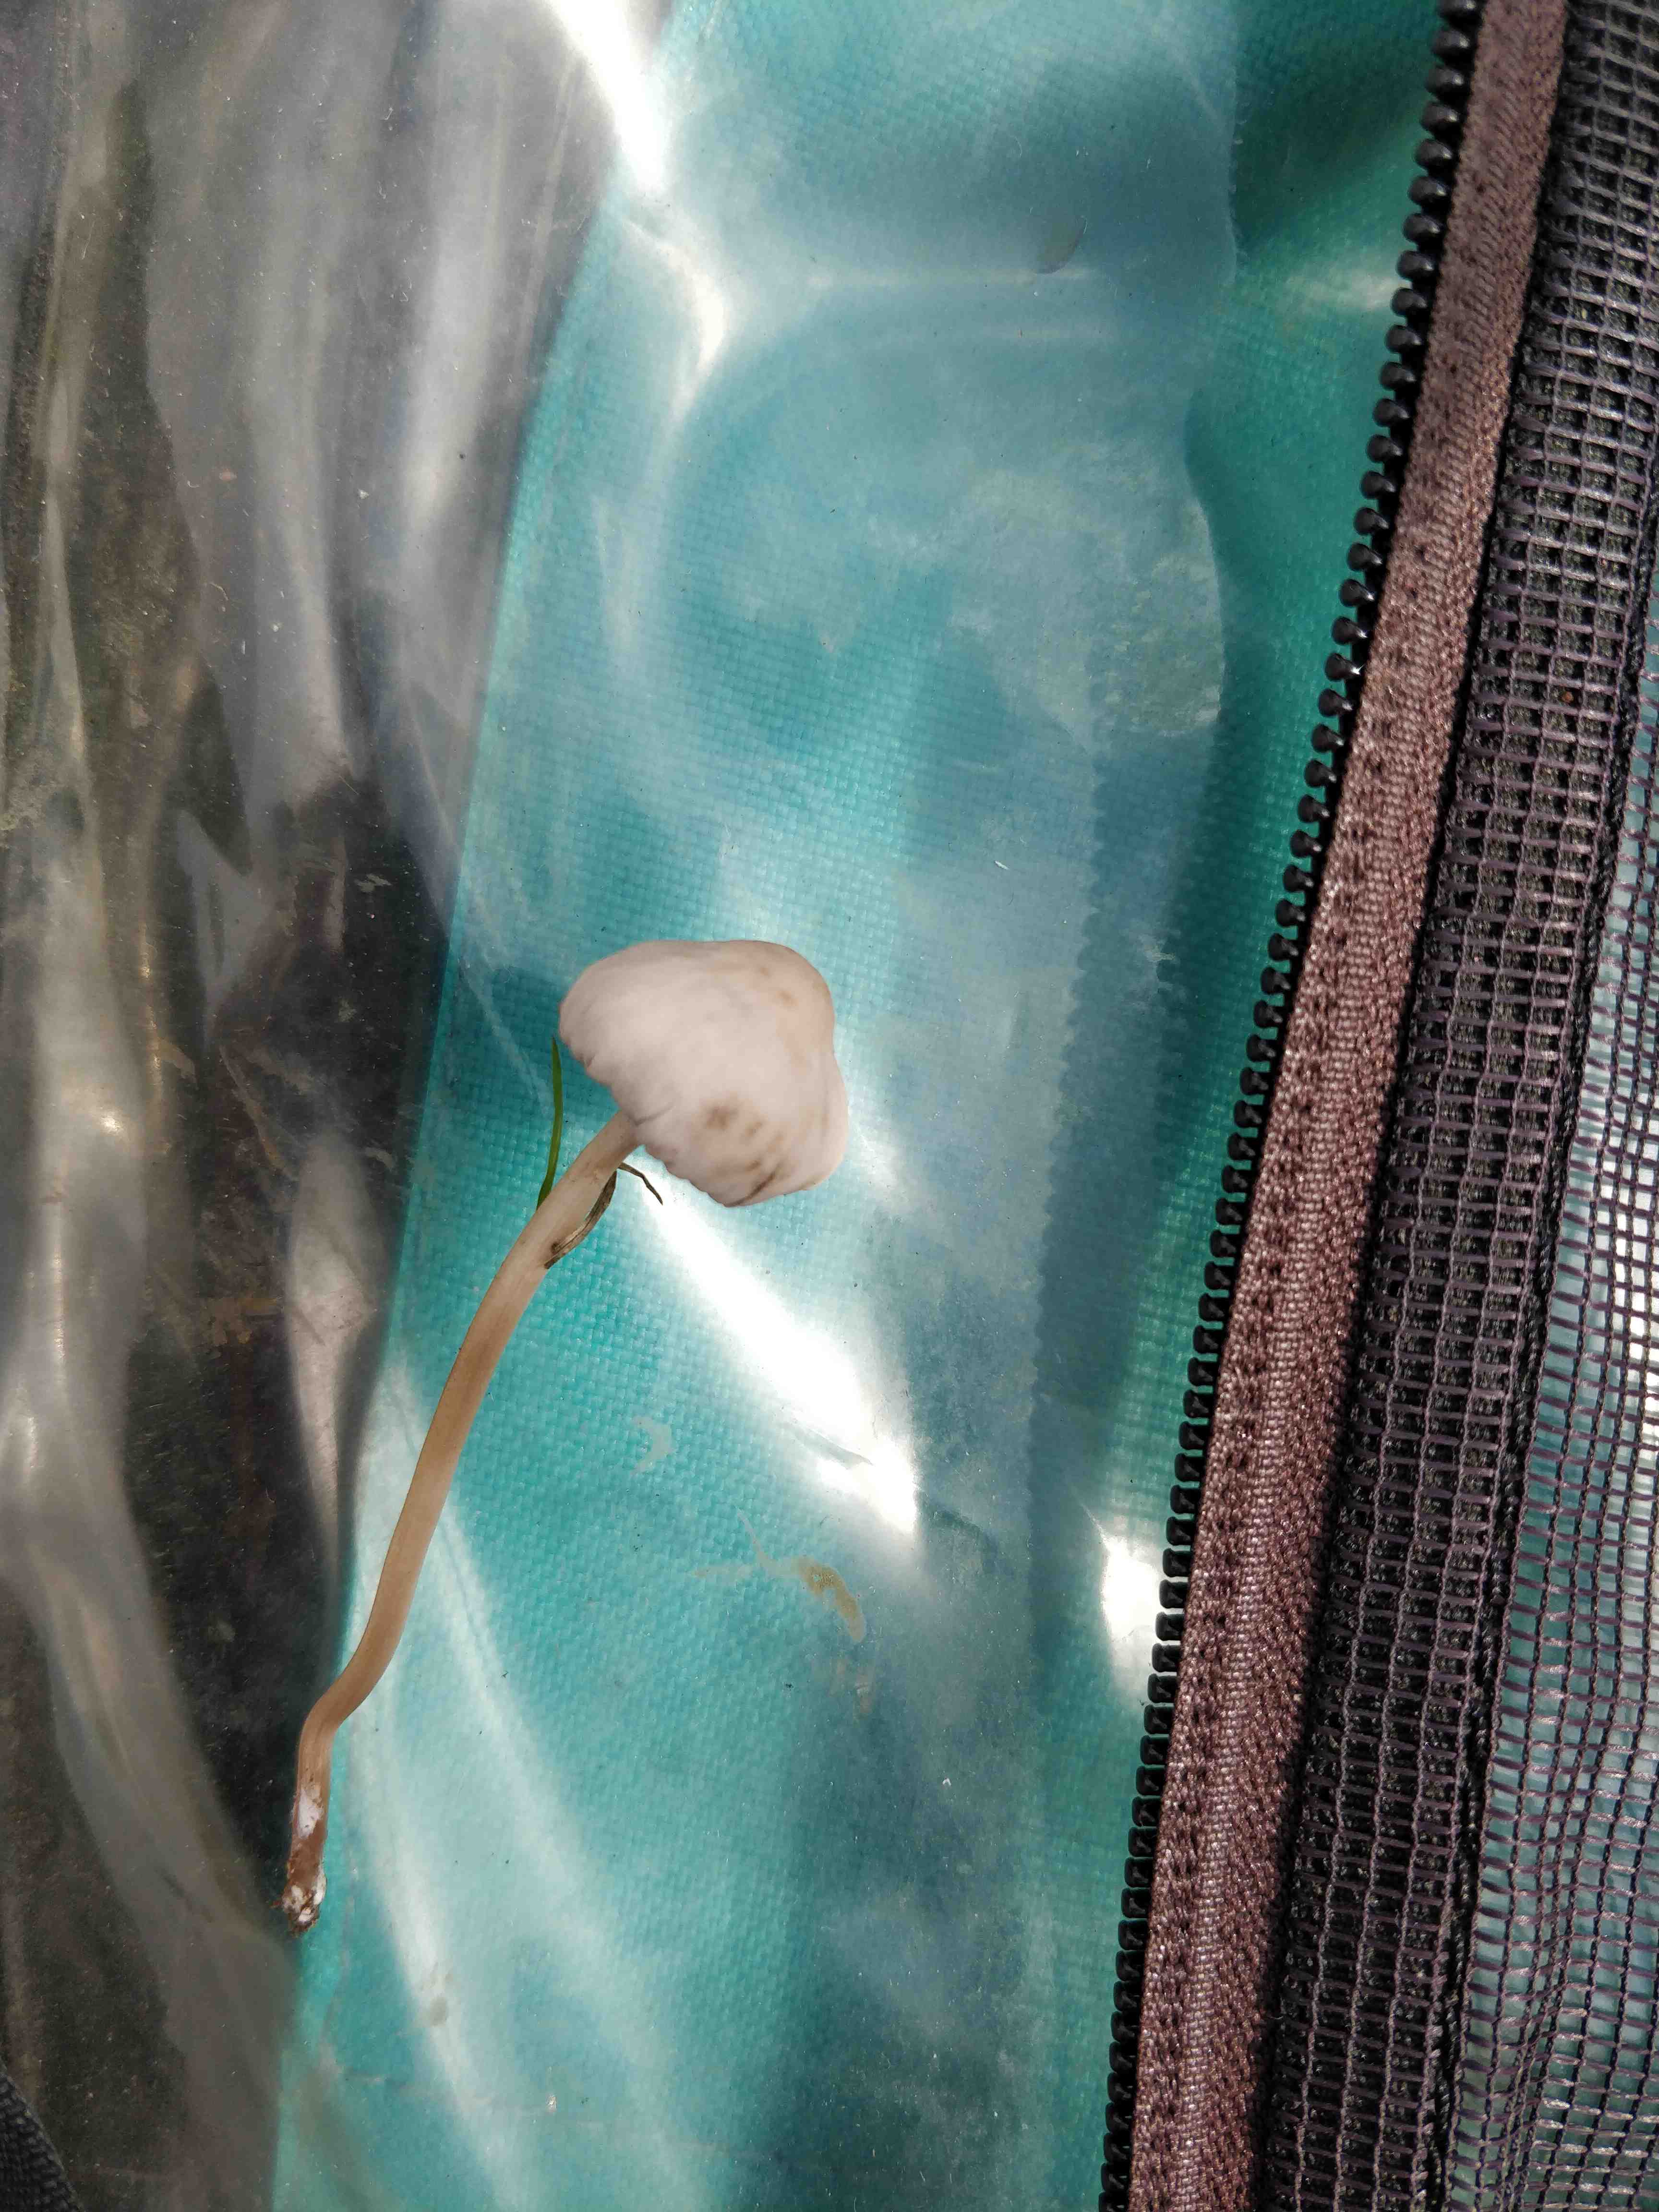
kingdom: Fungi
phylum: Basidiomycota
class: Agaricomycetes
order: Agaricales
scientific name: Agaricales
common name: champignonordenen
